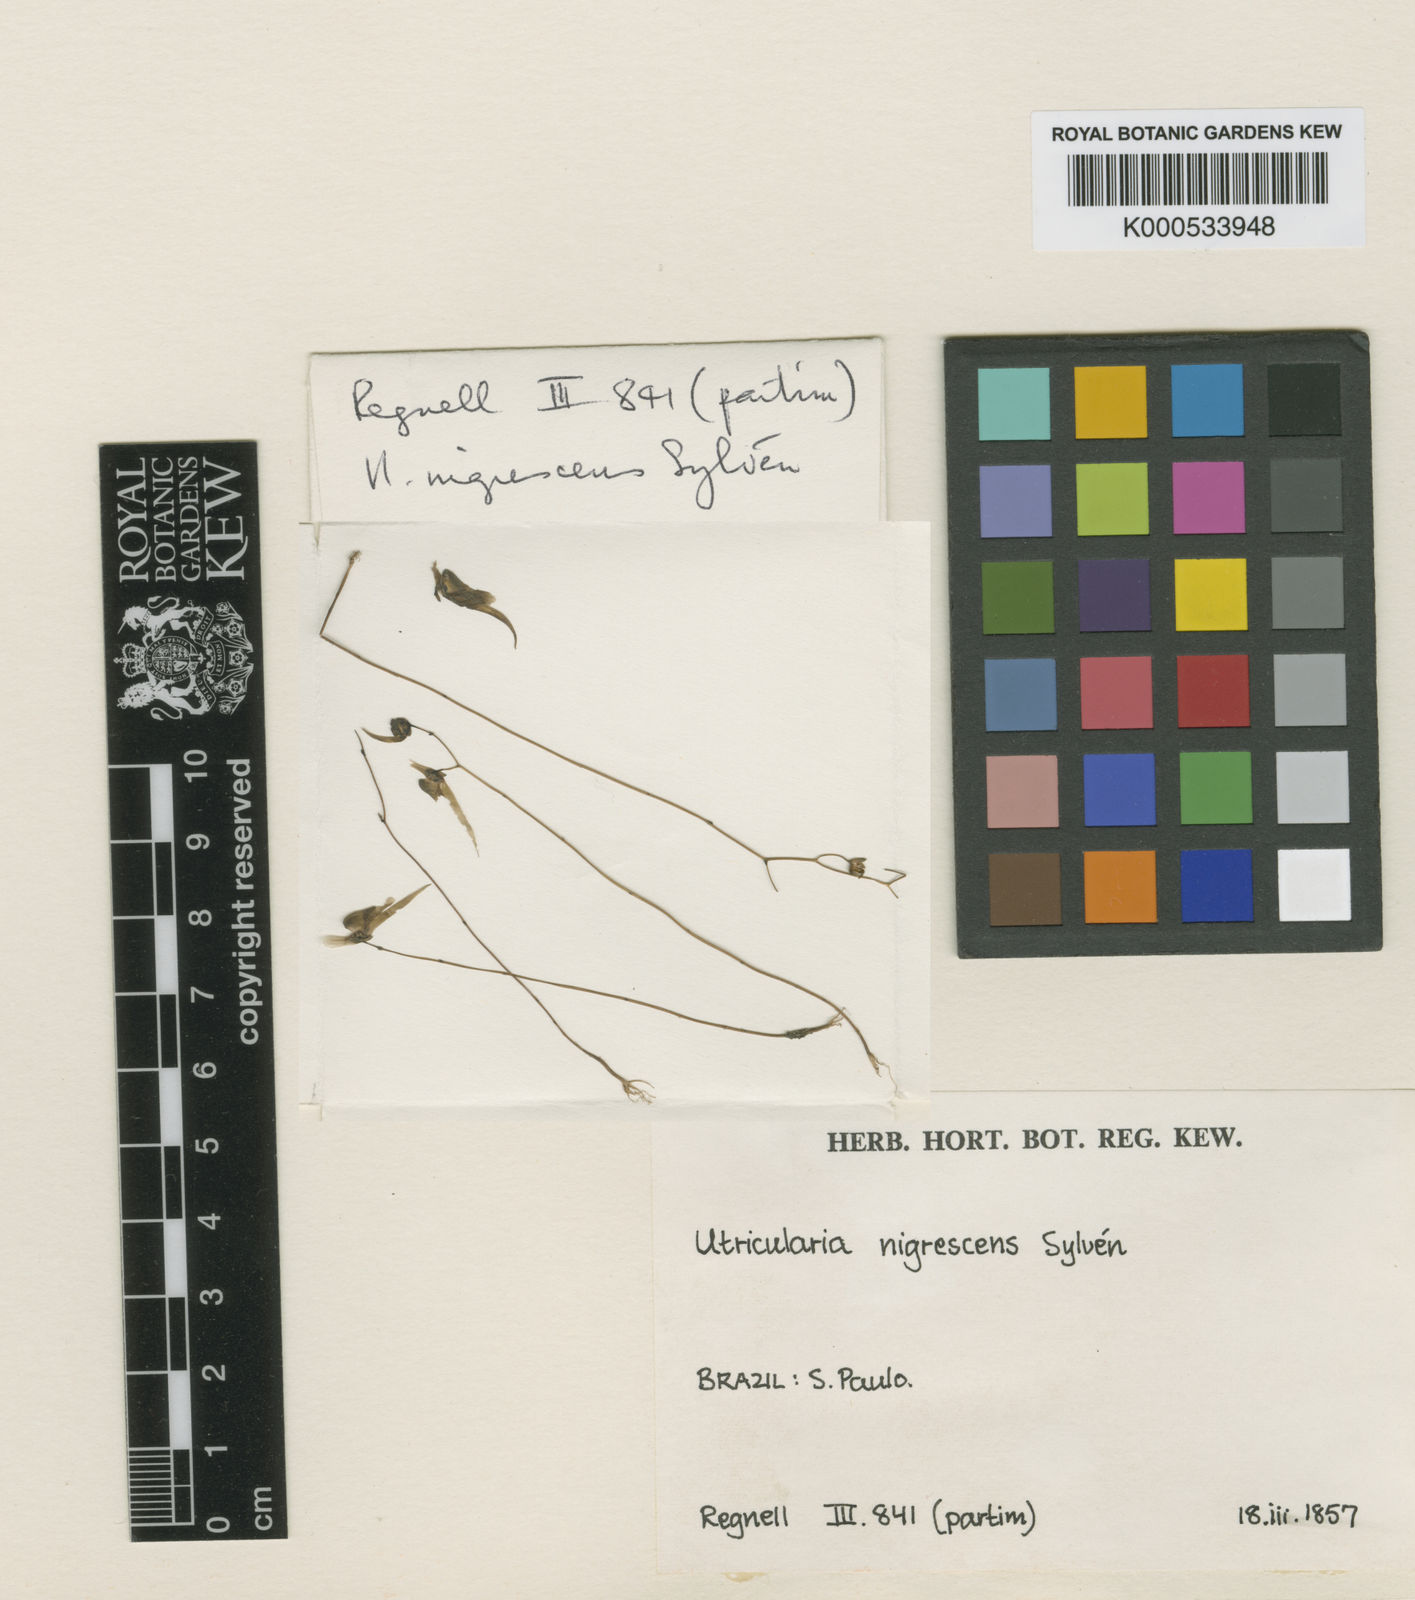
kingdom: Plantae
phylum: Tracheophyta
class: Magnoliopsida
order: Lamiales
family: Lentibulariaceae
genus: Utricularia
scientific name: Utricularia
